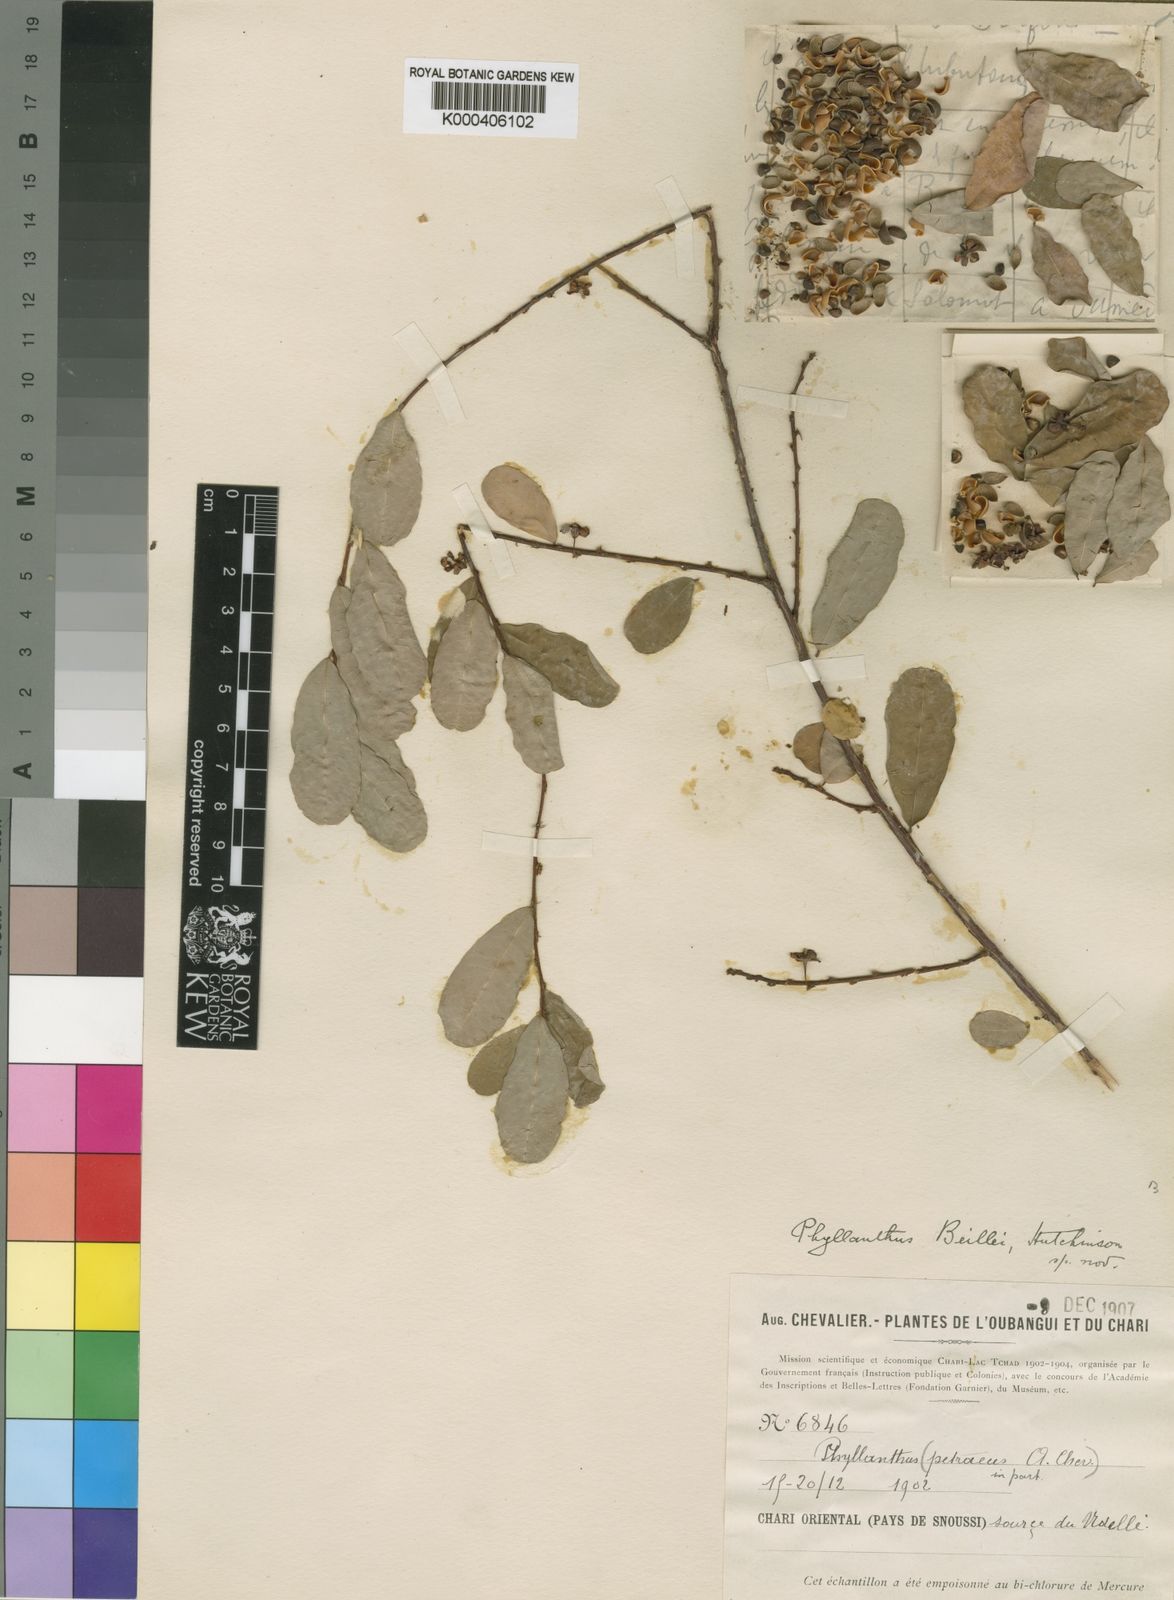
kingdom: Plantae
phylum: Tracheophyta
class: Magnoliopsida
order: Malpighiales
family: Phyllanthaceae
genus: Phyllanthus
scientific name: Phyllanthus welwitschianus
